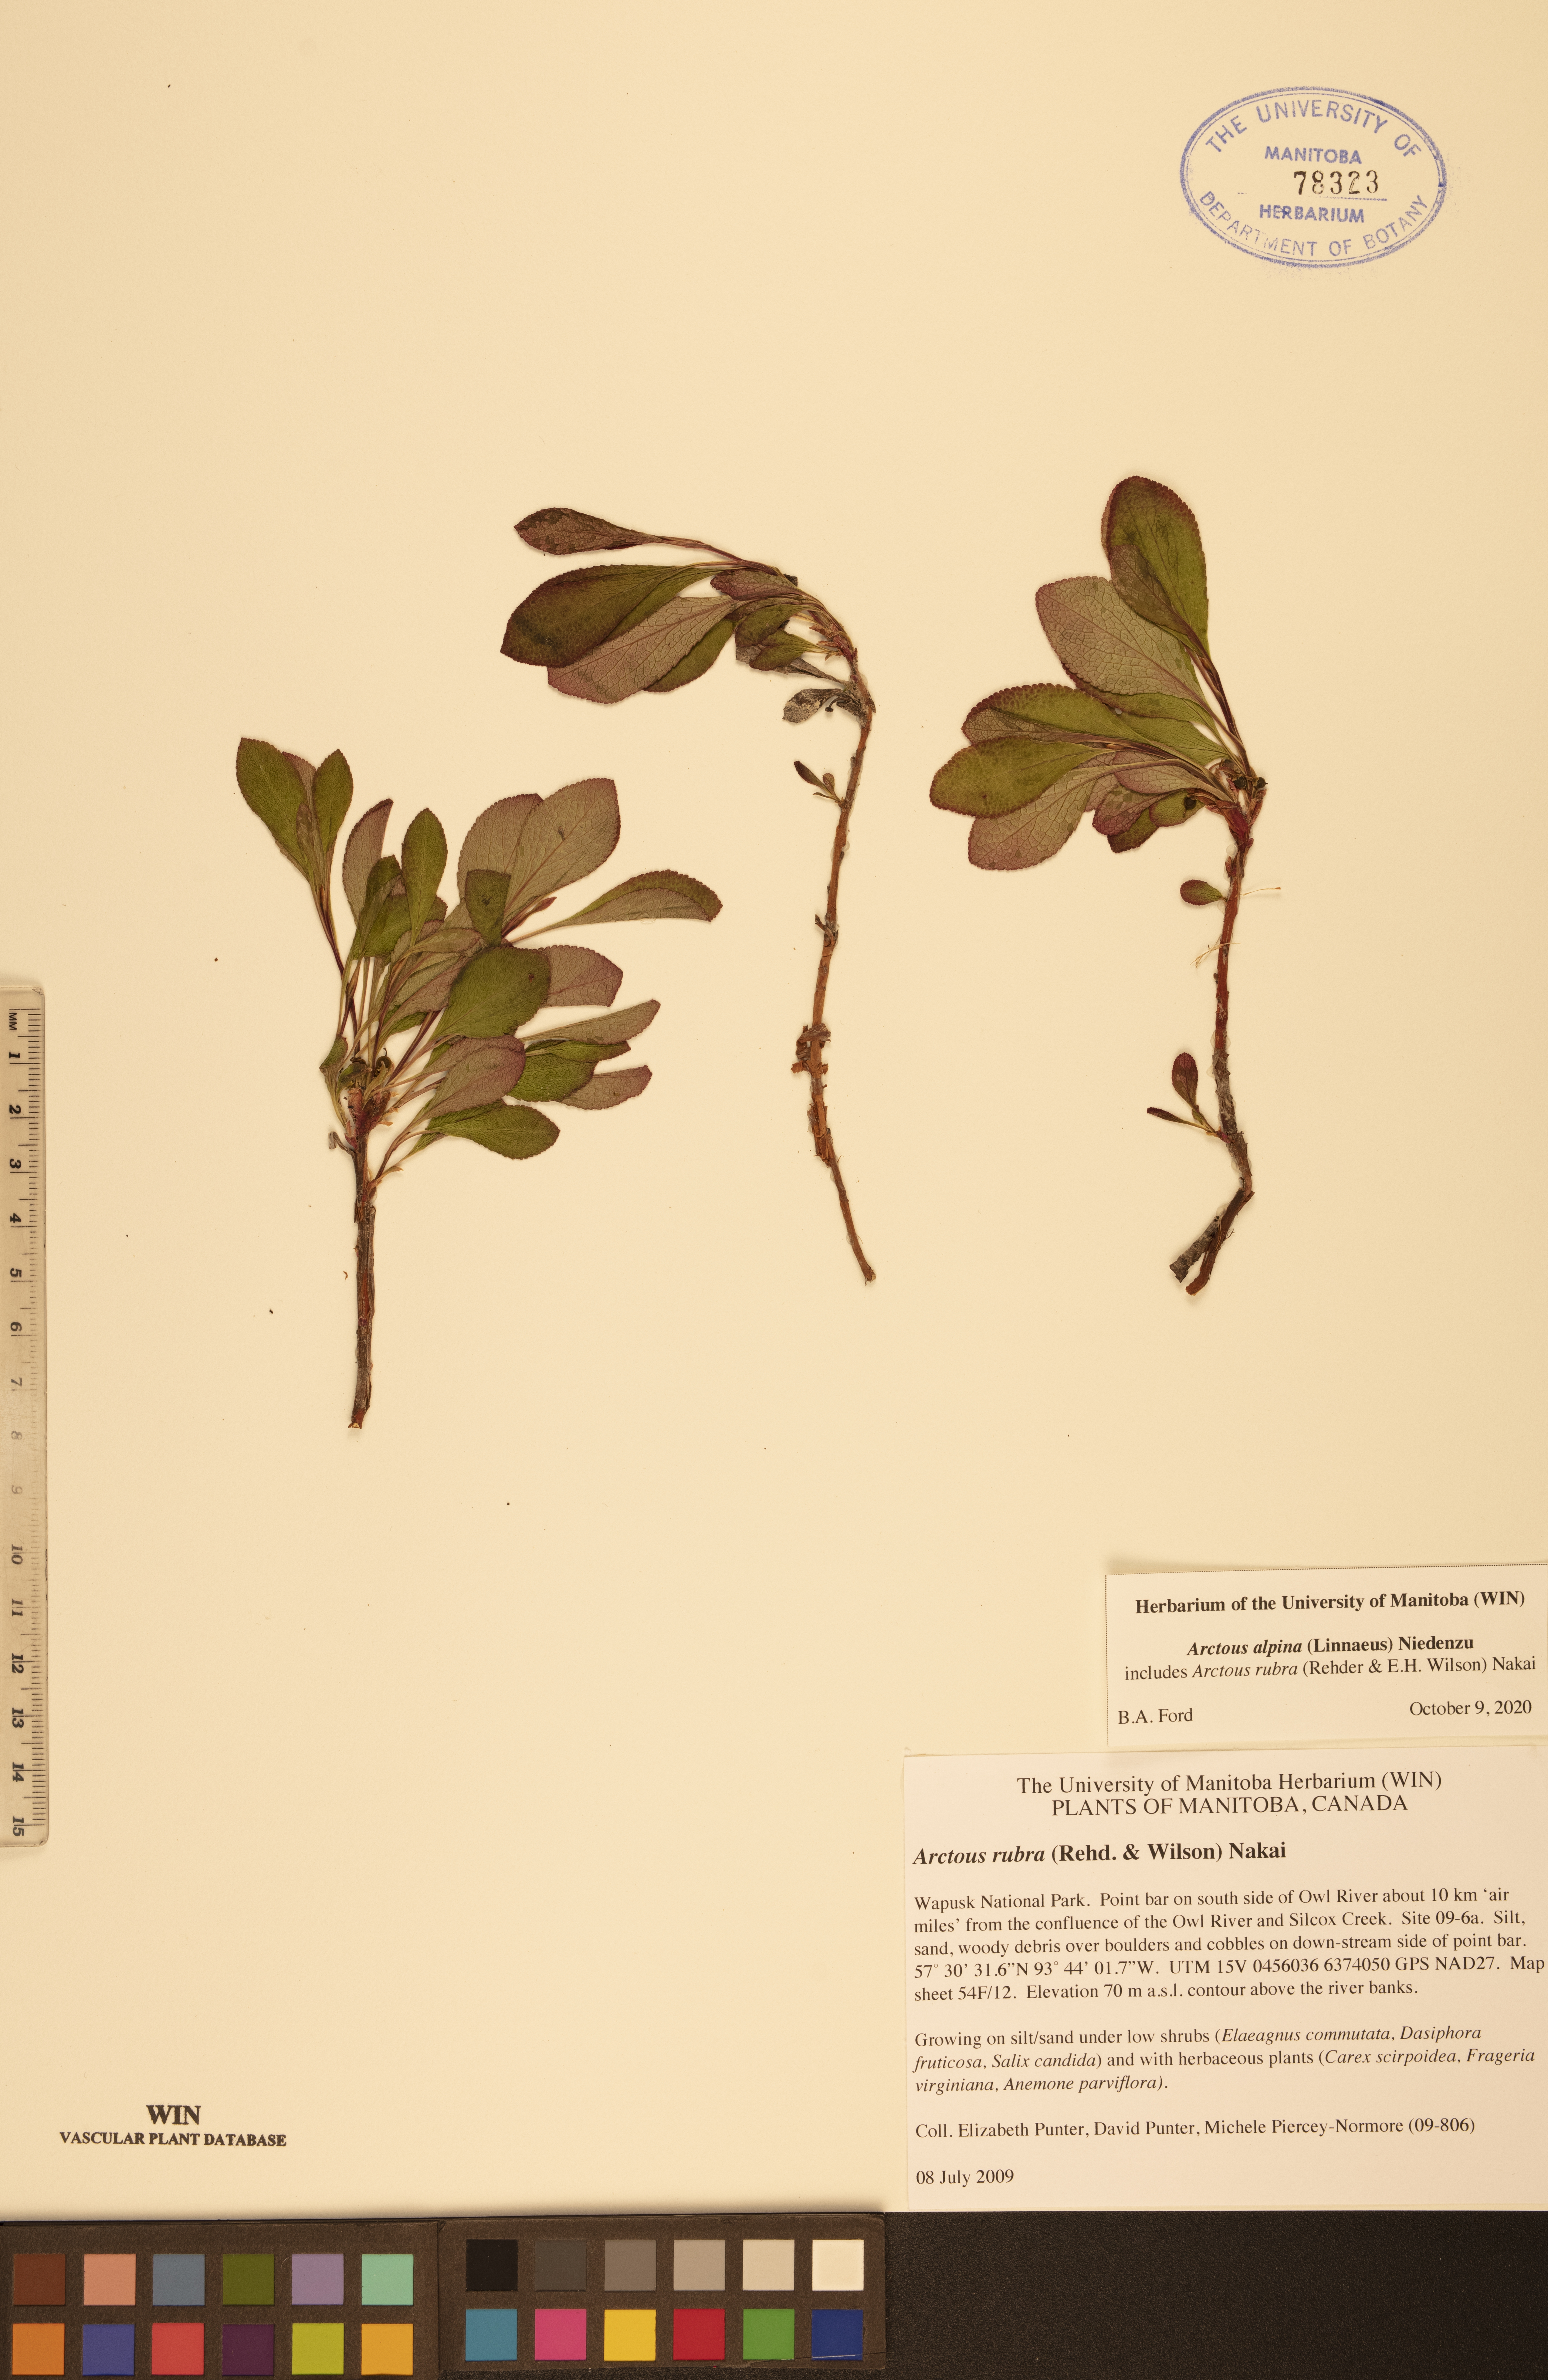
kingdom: Plantae
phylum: Tracheophyta
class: Magnoliopsida
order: Ericales
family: Ericaceae
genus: Arctostaphylos
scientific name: Arctostaphylos alpinus
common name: Alpine bearberry
